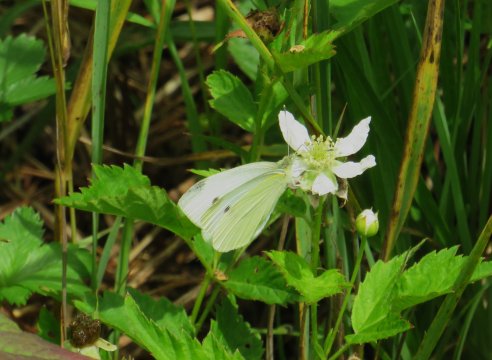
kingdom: Animalia
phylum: Arthropoda
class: Insecta
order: Lepidoptera
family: Pieridae
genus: Pieris
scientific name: Pieris rapae
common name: Cabbage White
